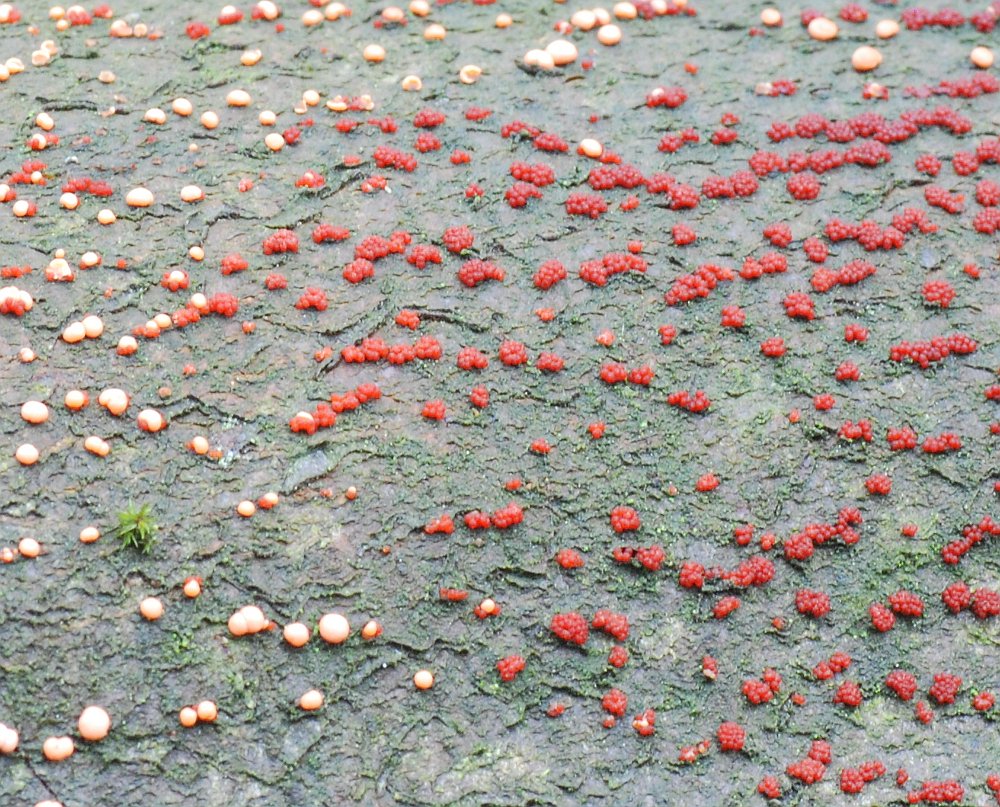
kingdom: Fungi
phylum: Ascomycota
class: Sordariomycetes
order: Hypocreales
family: Nectriaceae
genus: Nectria
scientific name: Nectria cinnabarina
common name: almindelig cinnobersvamp
